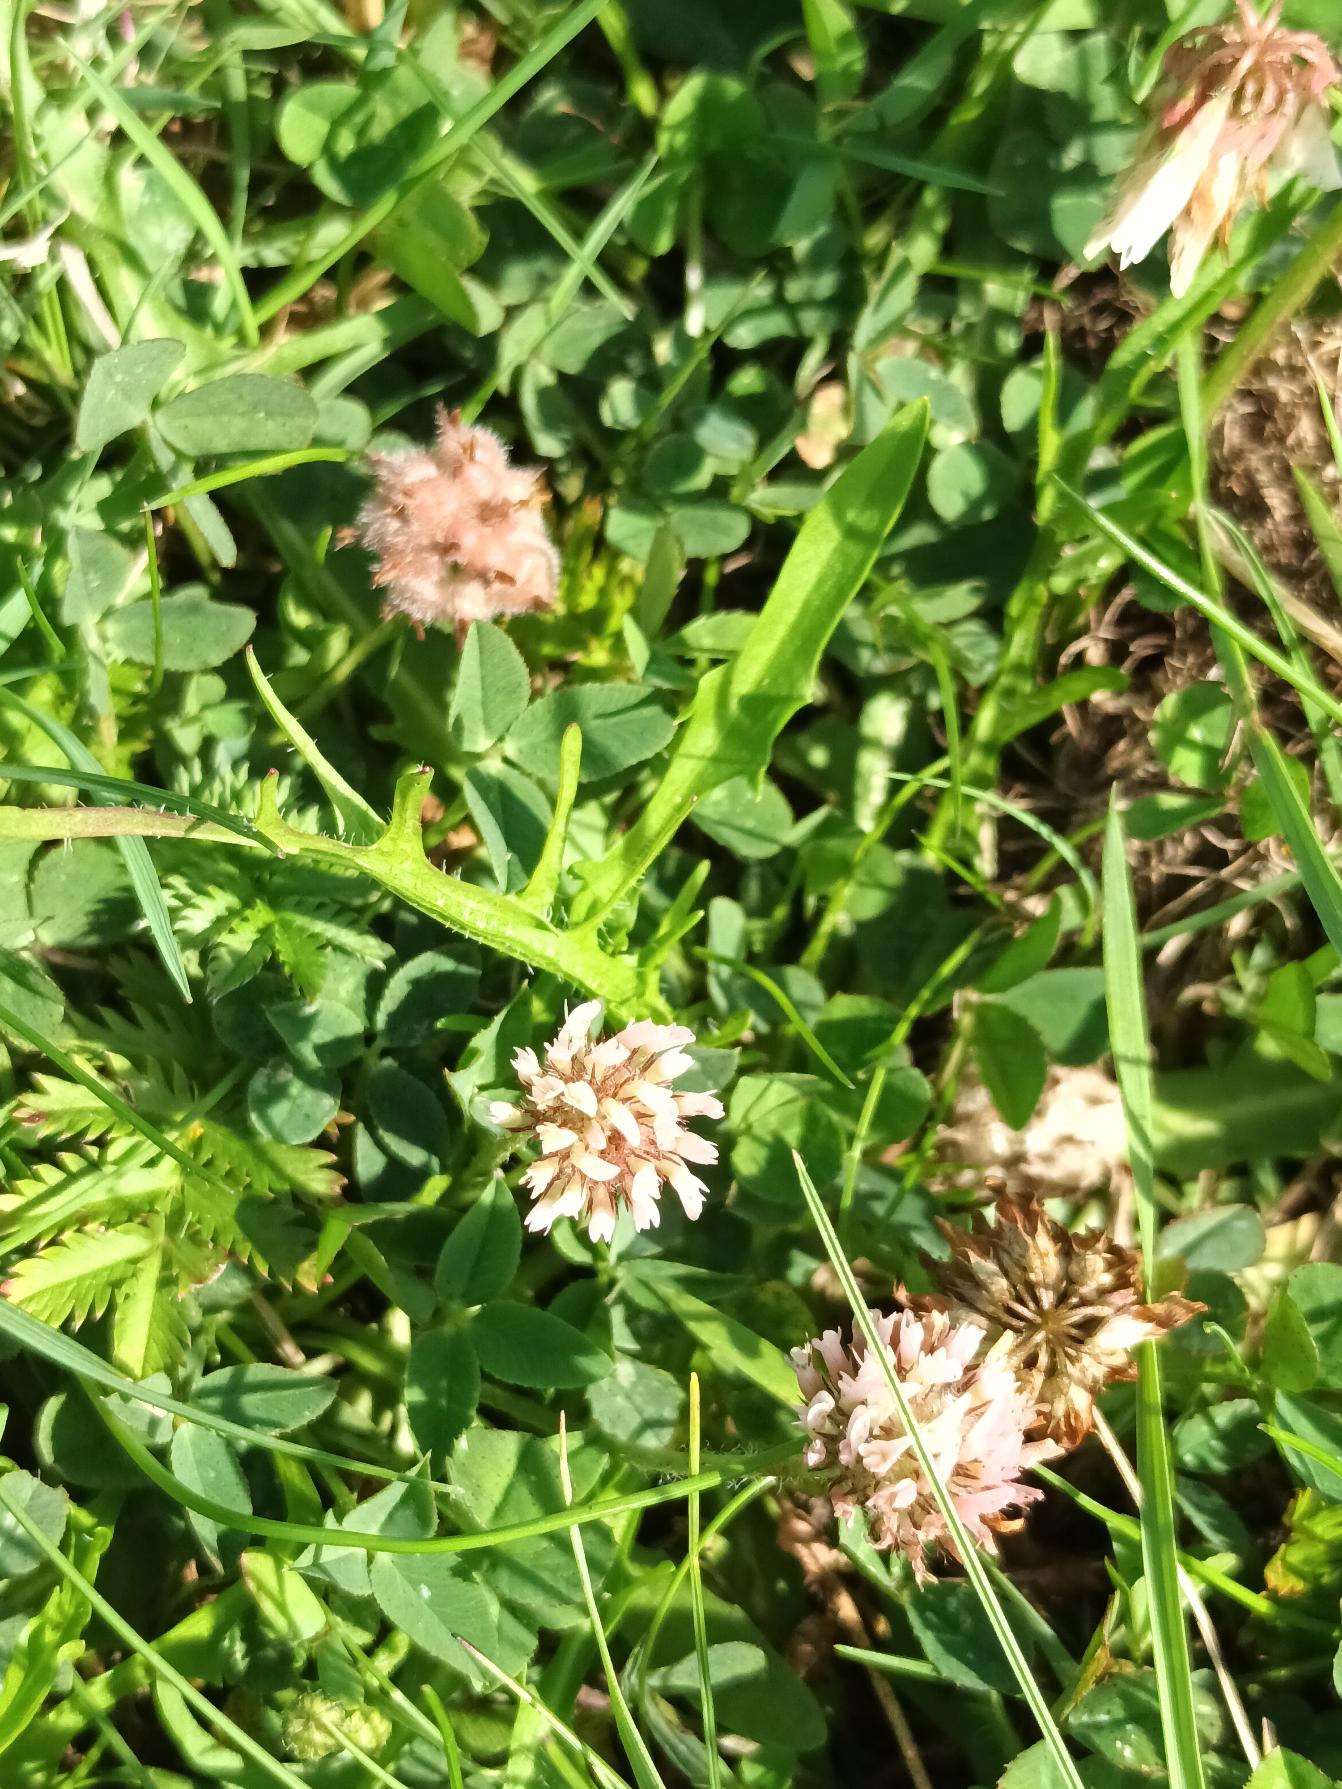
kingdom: Plantae
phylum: Tracheophyta
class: Magnoliopsida
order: Fabales
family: Fabaceae
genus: Trifolium
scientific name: Trifolium fragiferum
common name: Jordbær-kløver
